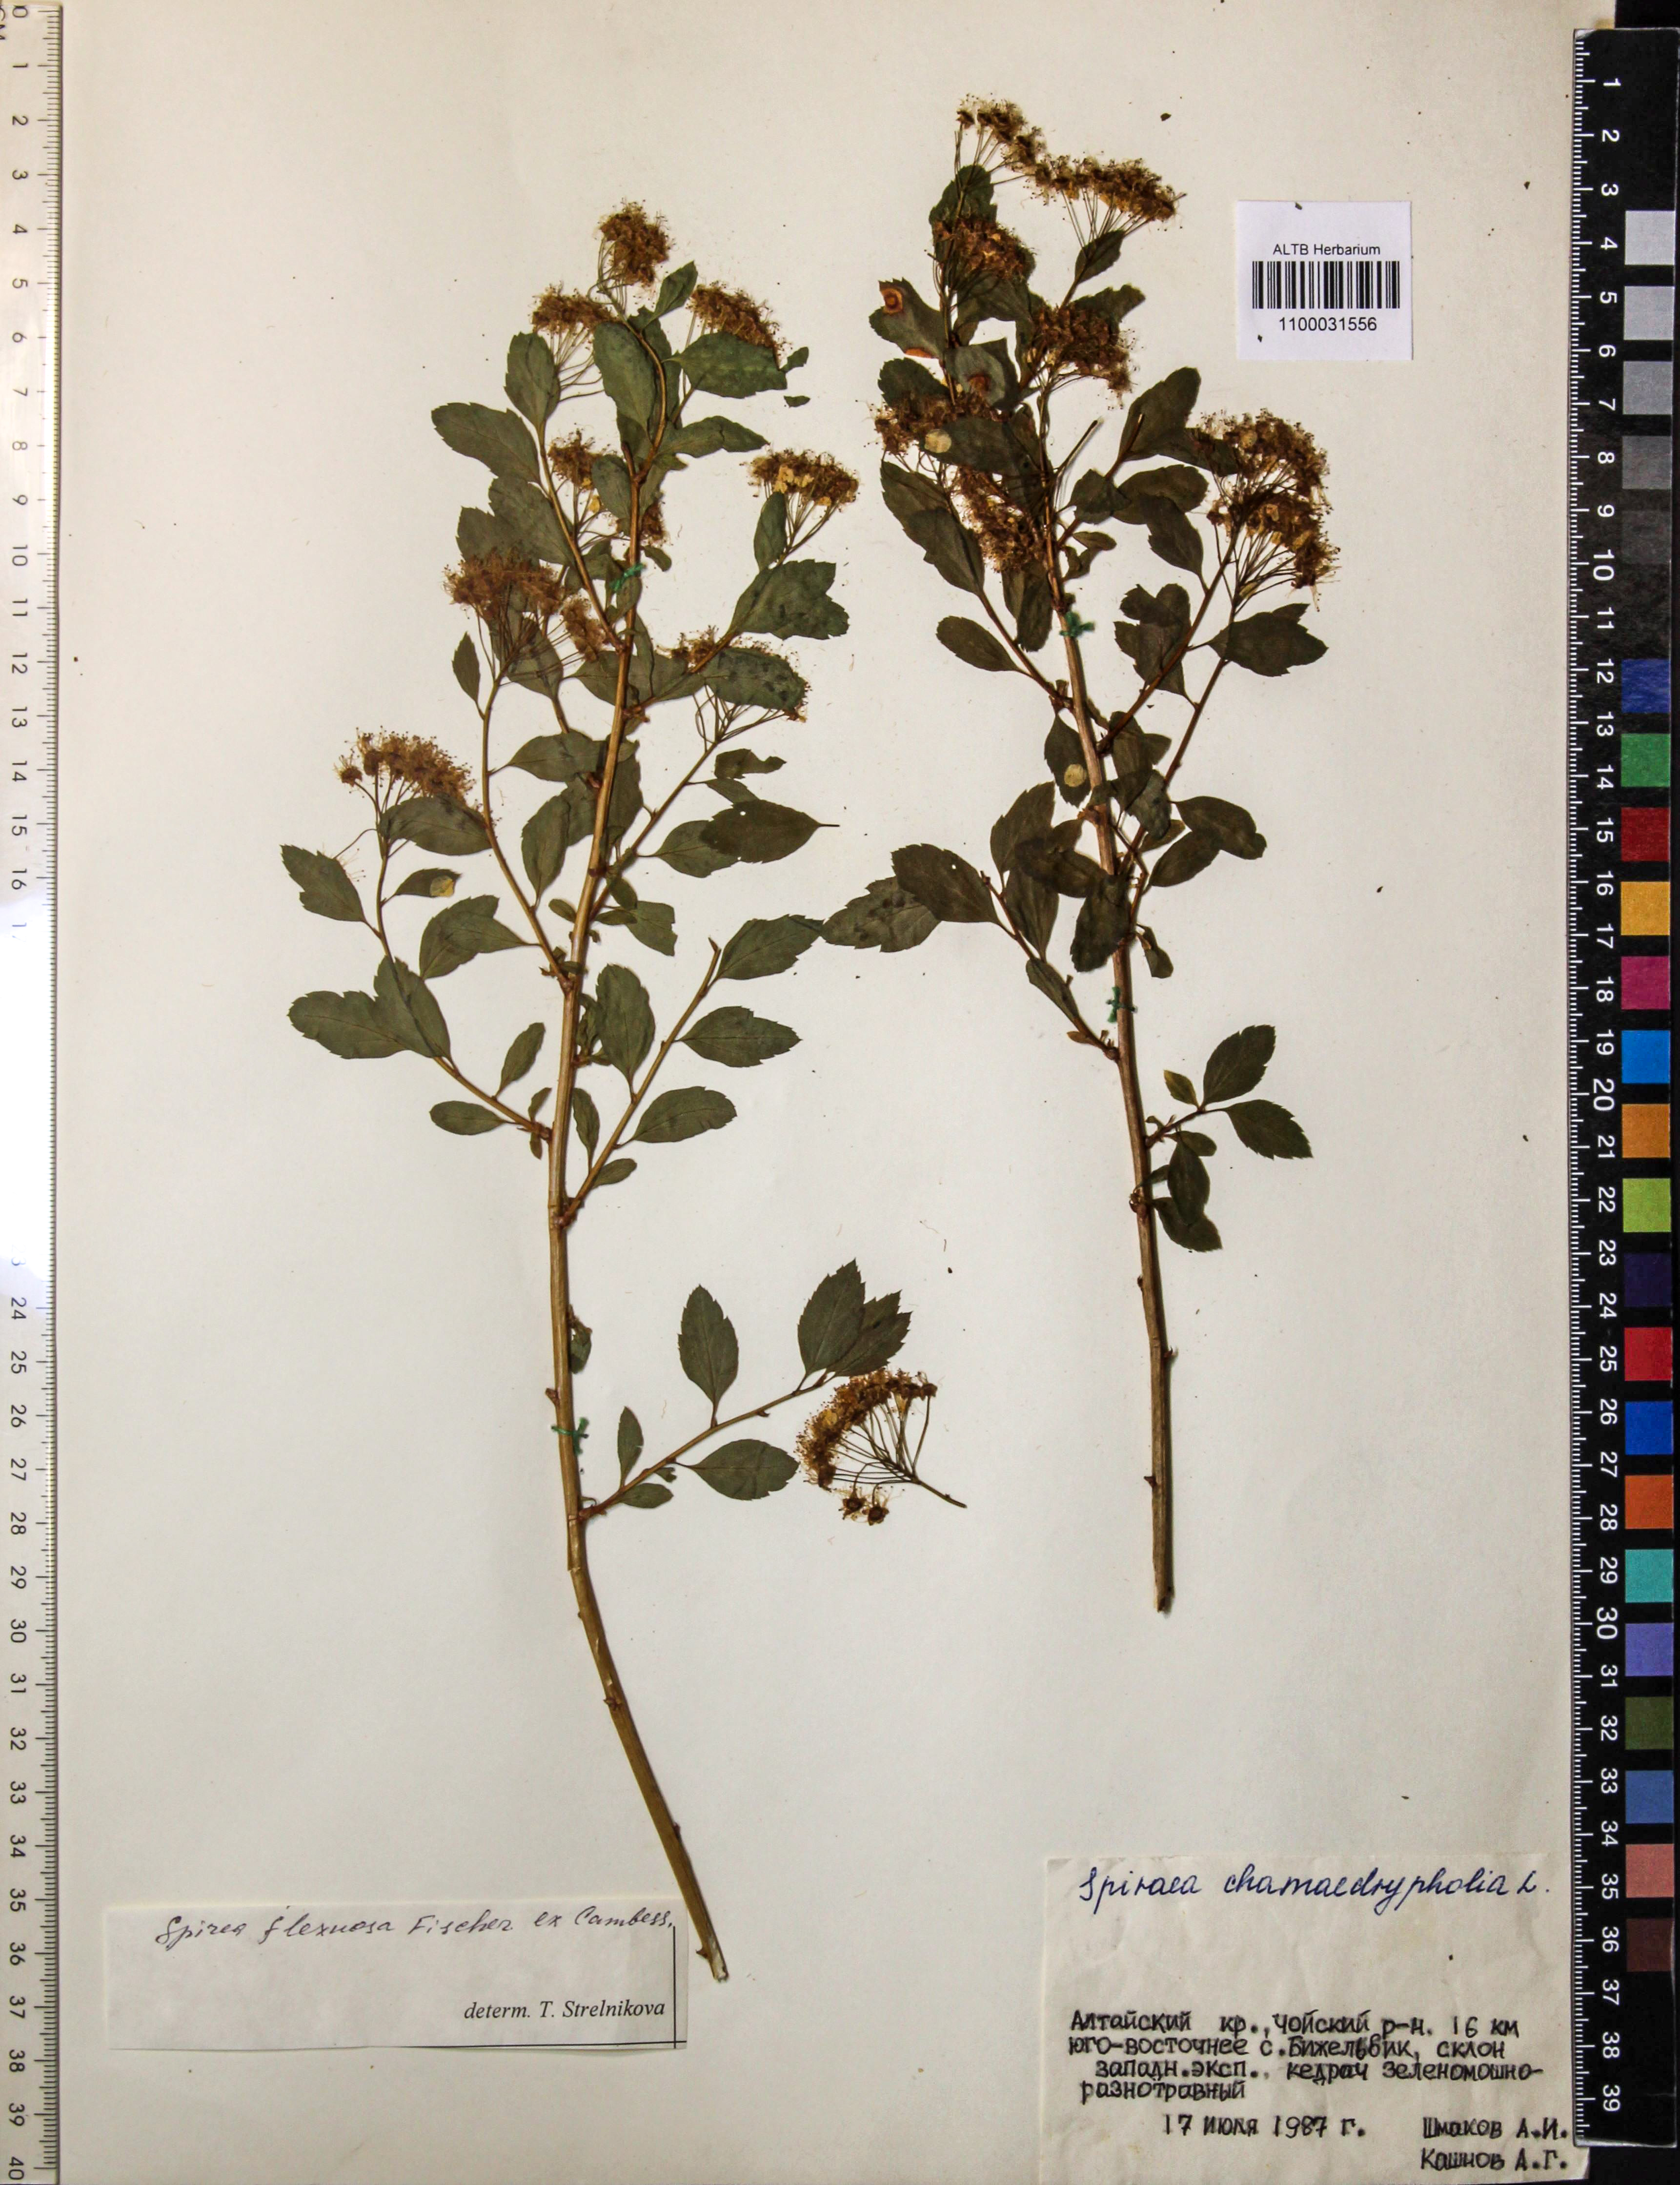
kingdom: Plantae
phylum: Tracheophyta
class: Magnoliopsida
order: Rosales
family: Rosaceae
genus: Spiraea
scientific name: Spiraea flexuosa
